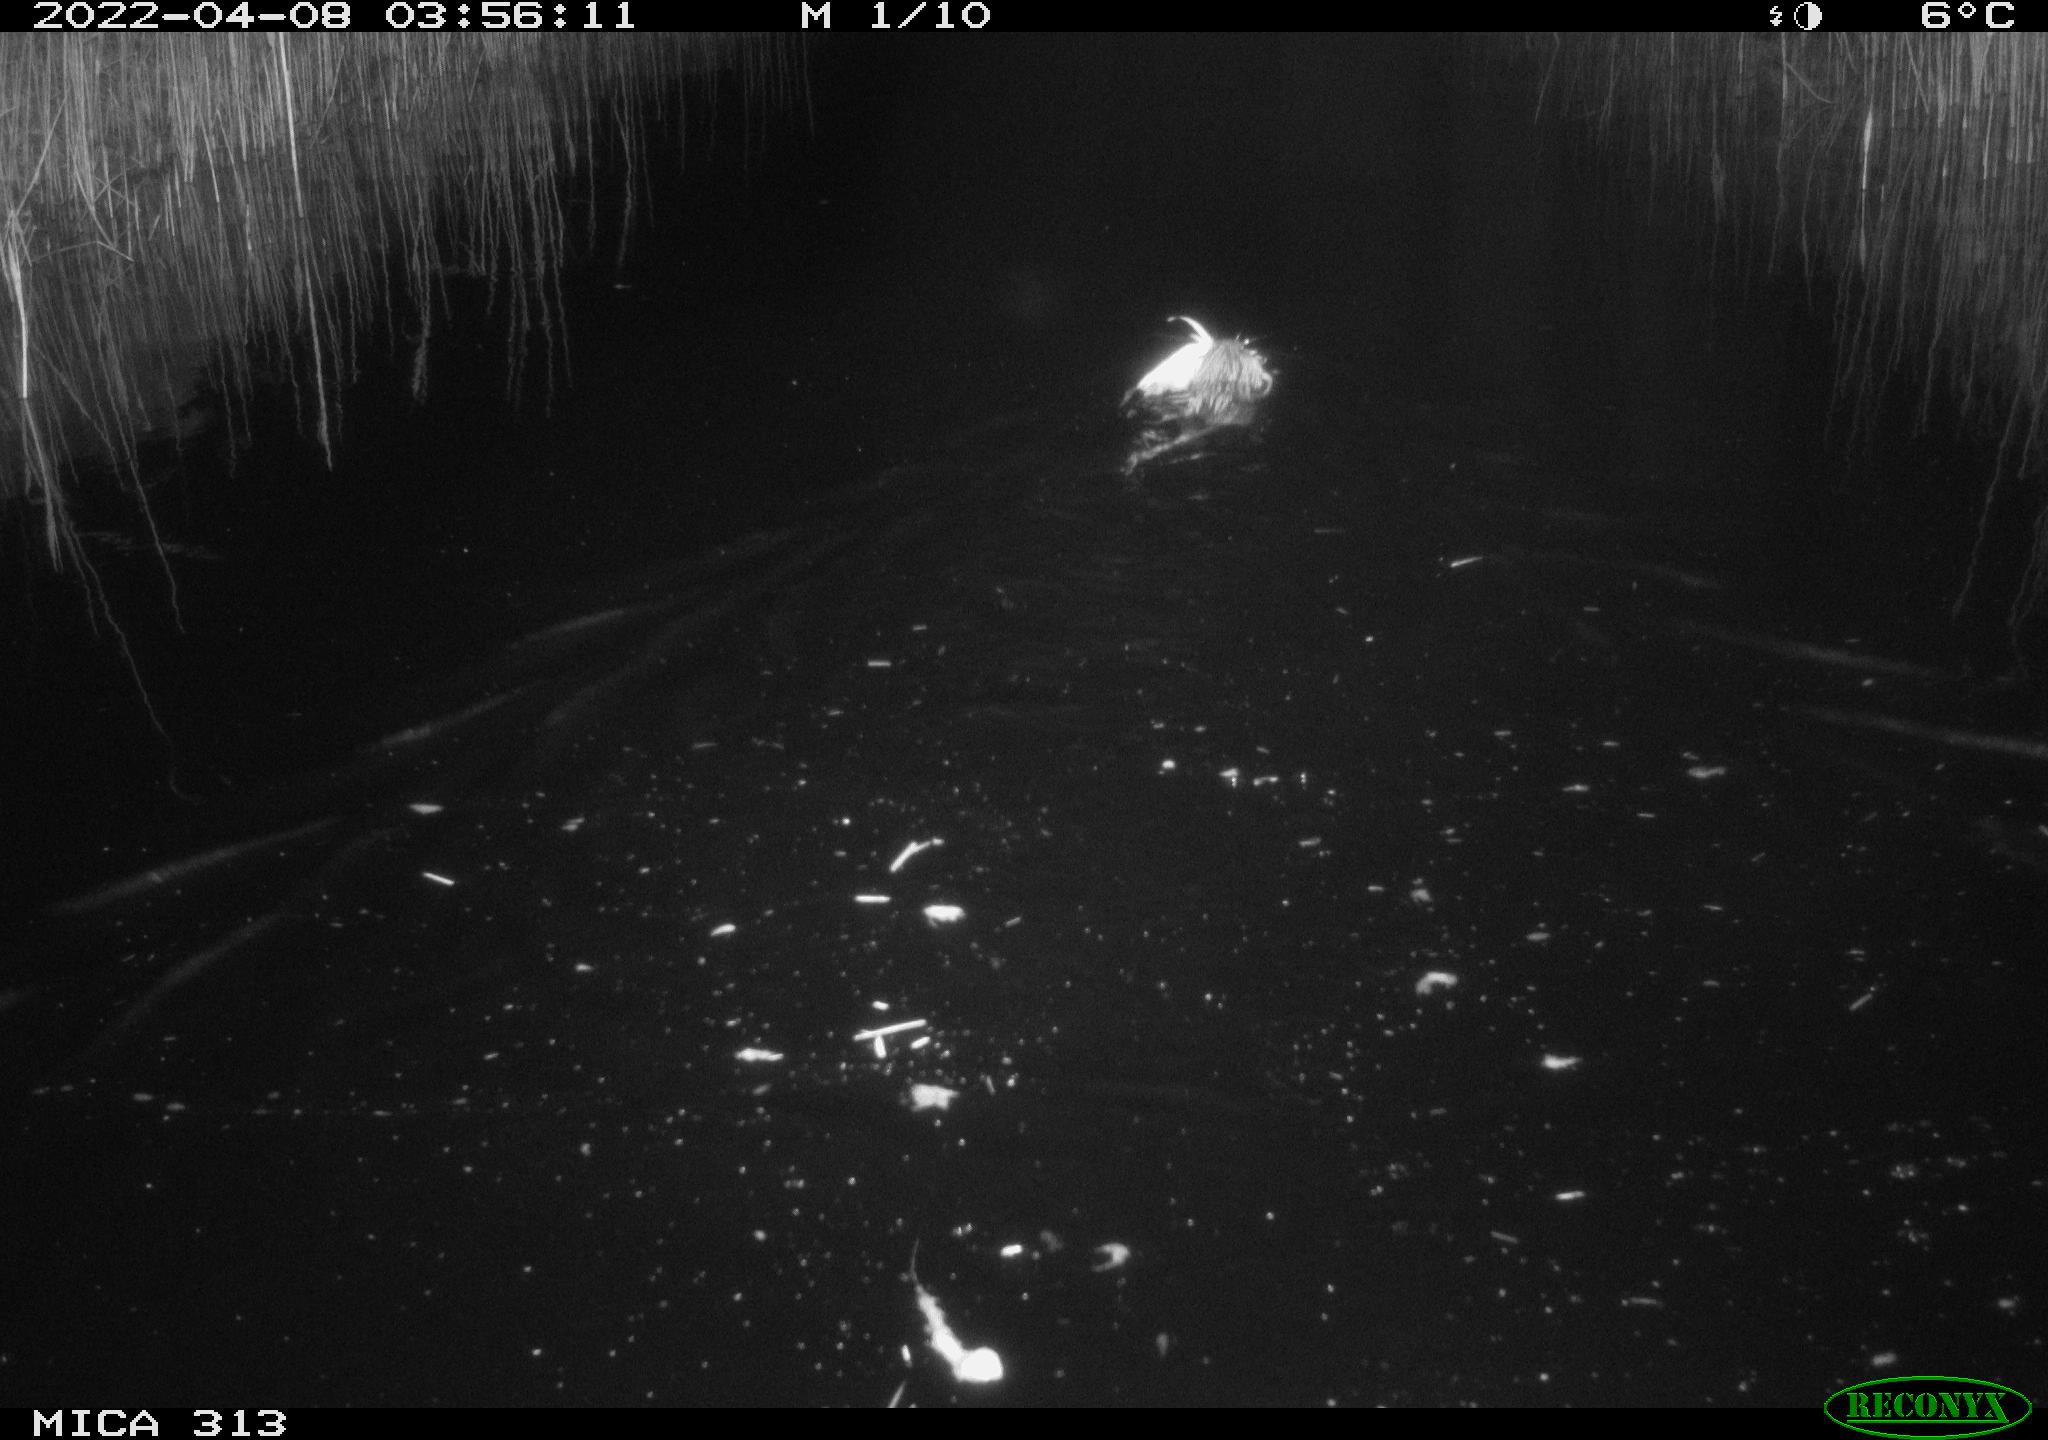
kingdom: Animalia
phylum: Chordata
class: Mammalia
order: Rodentia
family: Cricetidae
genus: Ondatra
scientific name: Ondatra zibethicus
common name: Muskrat
